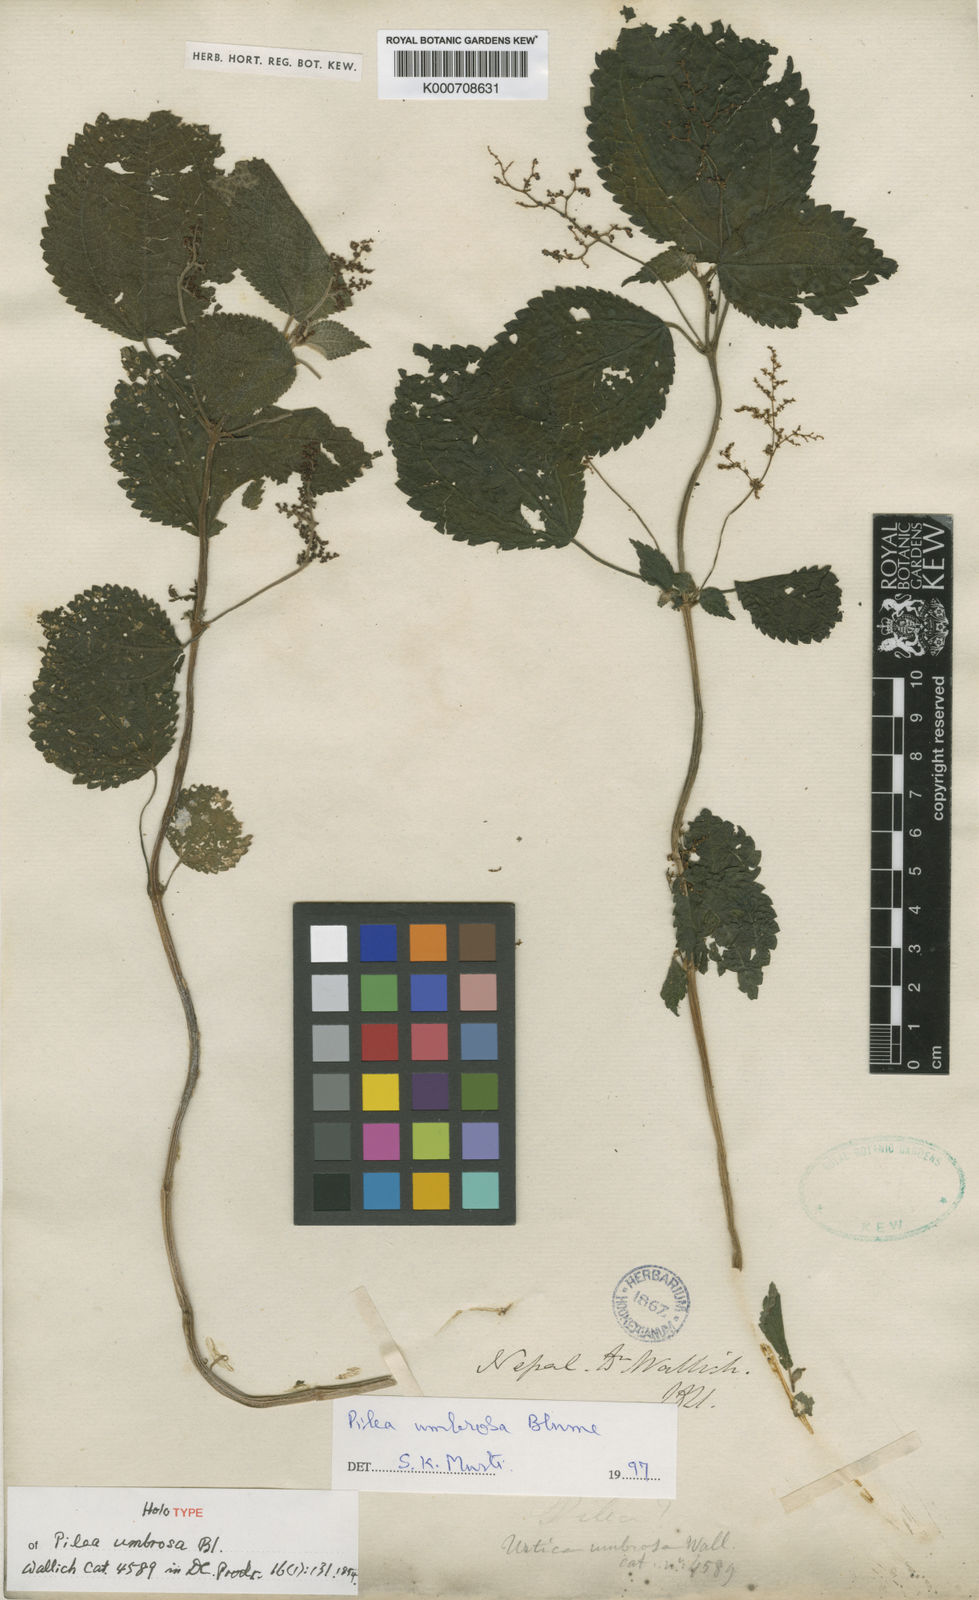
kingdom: Plantae
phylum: Tracheophyta
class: Magnoliopsida
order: Rosales
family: Urticaceae
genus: Pilea
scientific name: Pilea
